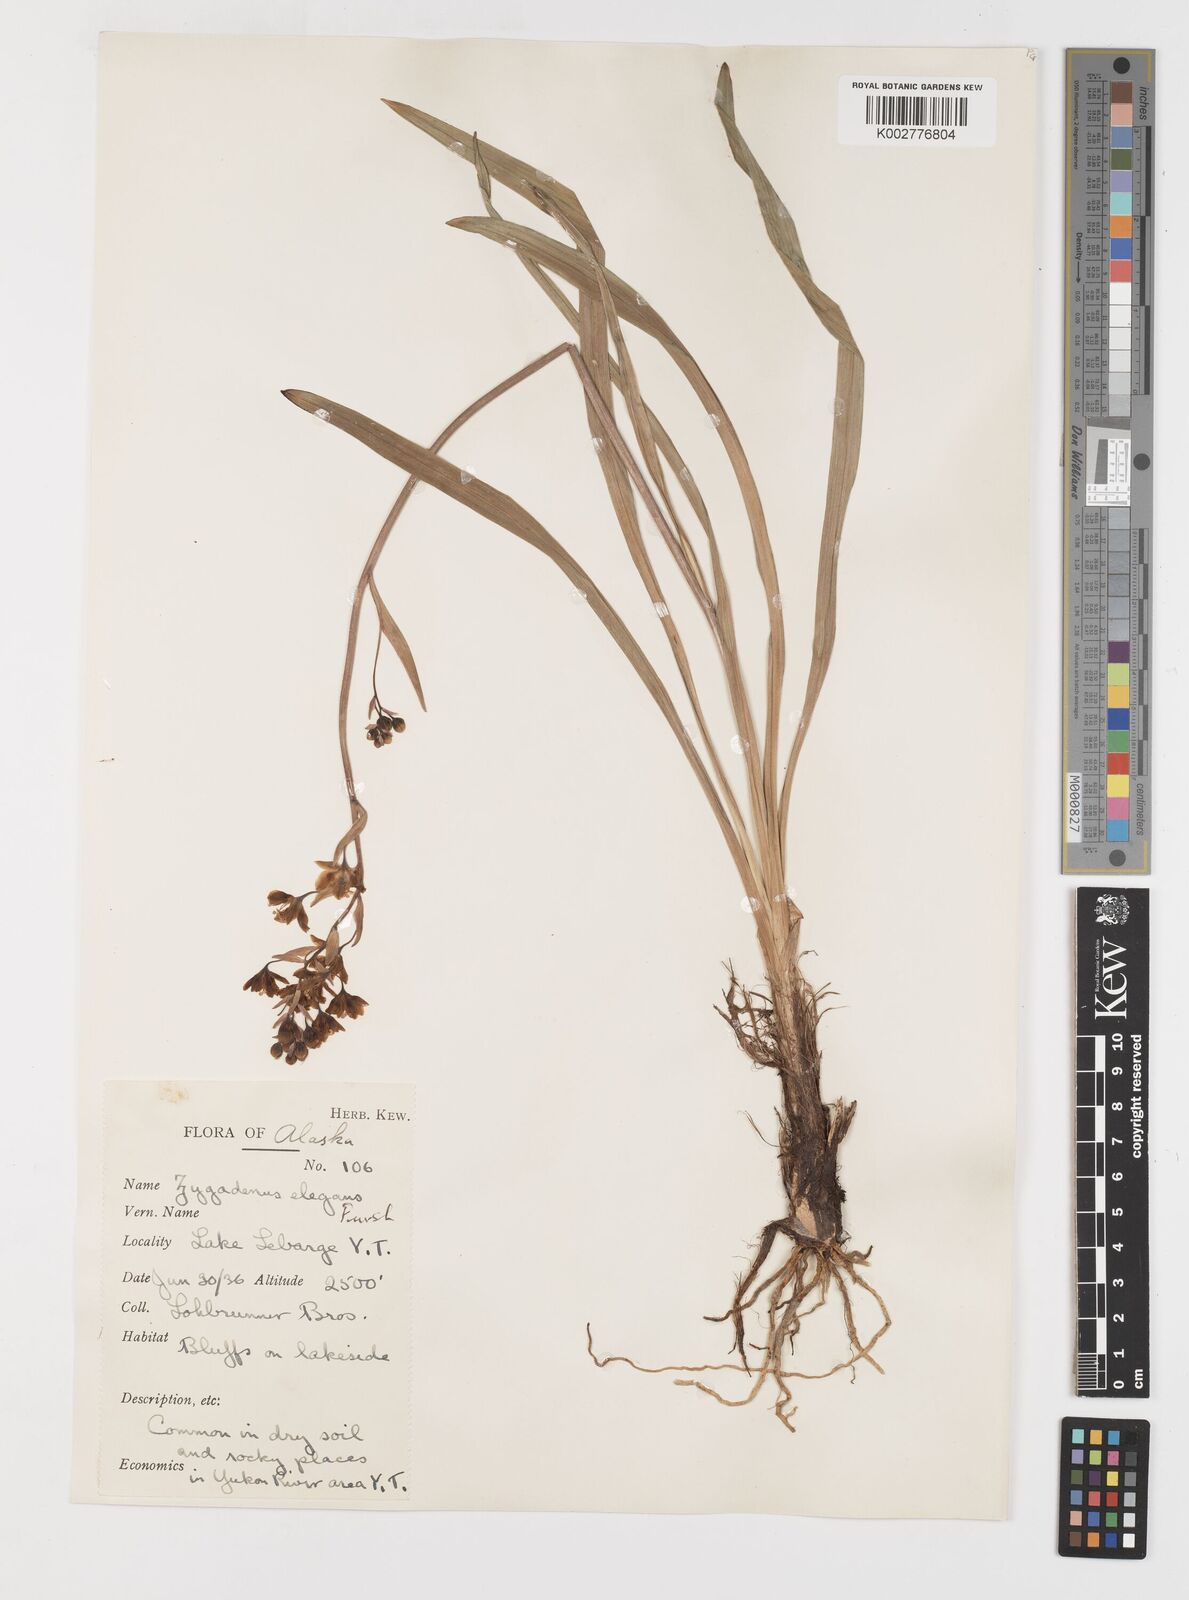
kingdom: Plantae
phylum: Tracheophyta
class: Liliopsida
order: Liliales
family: Melanthiaceae
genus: Anticlea
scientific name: Anticlea elegans
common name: Mountain death camas
